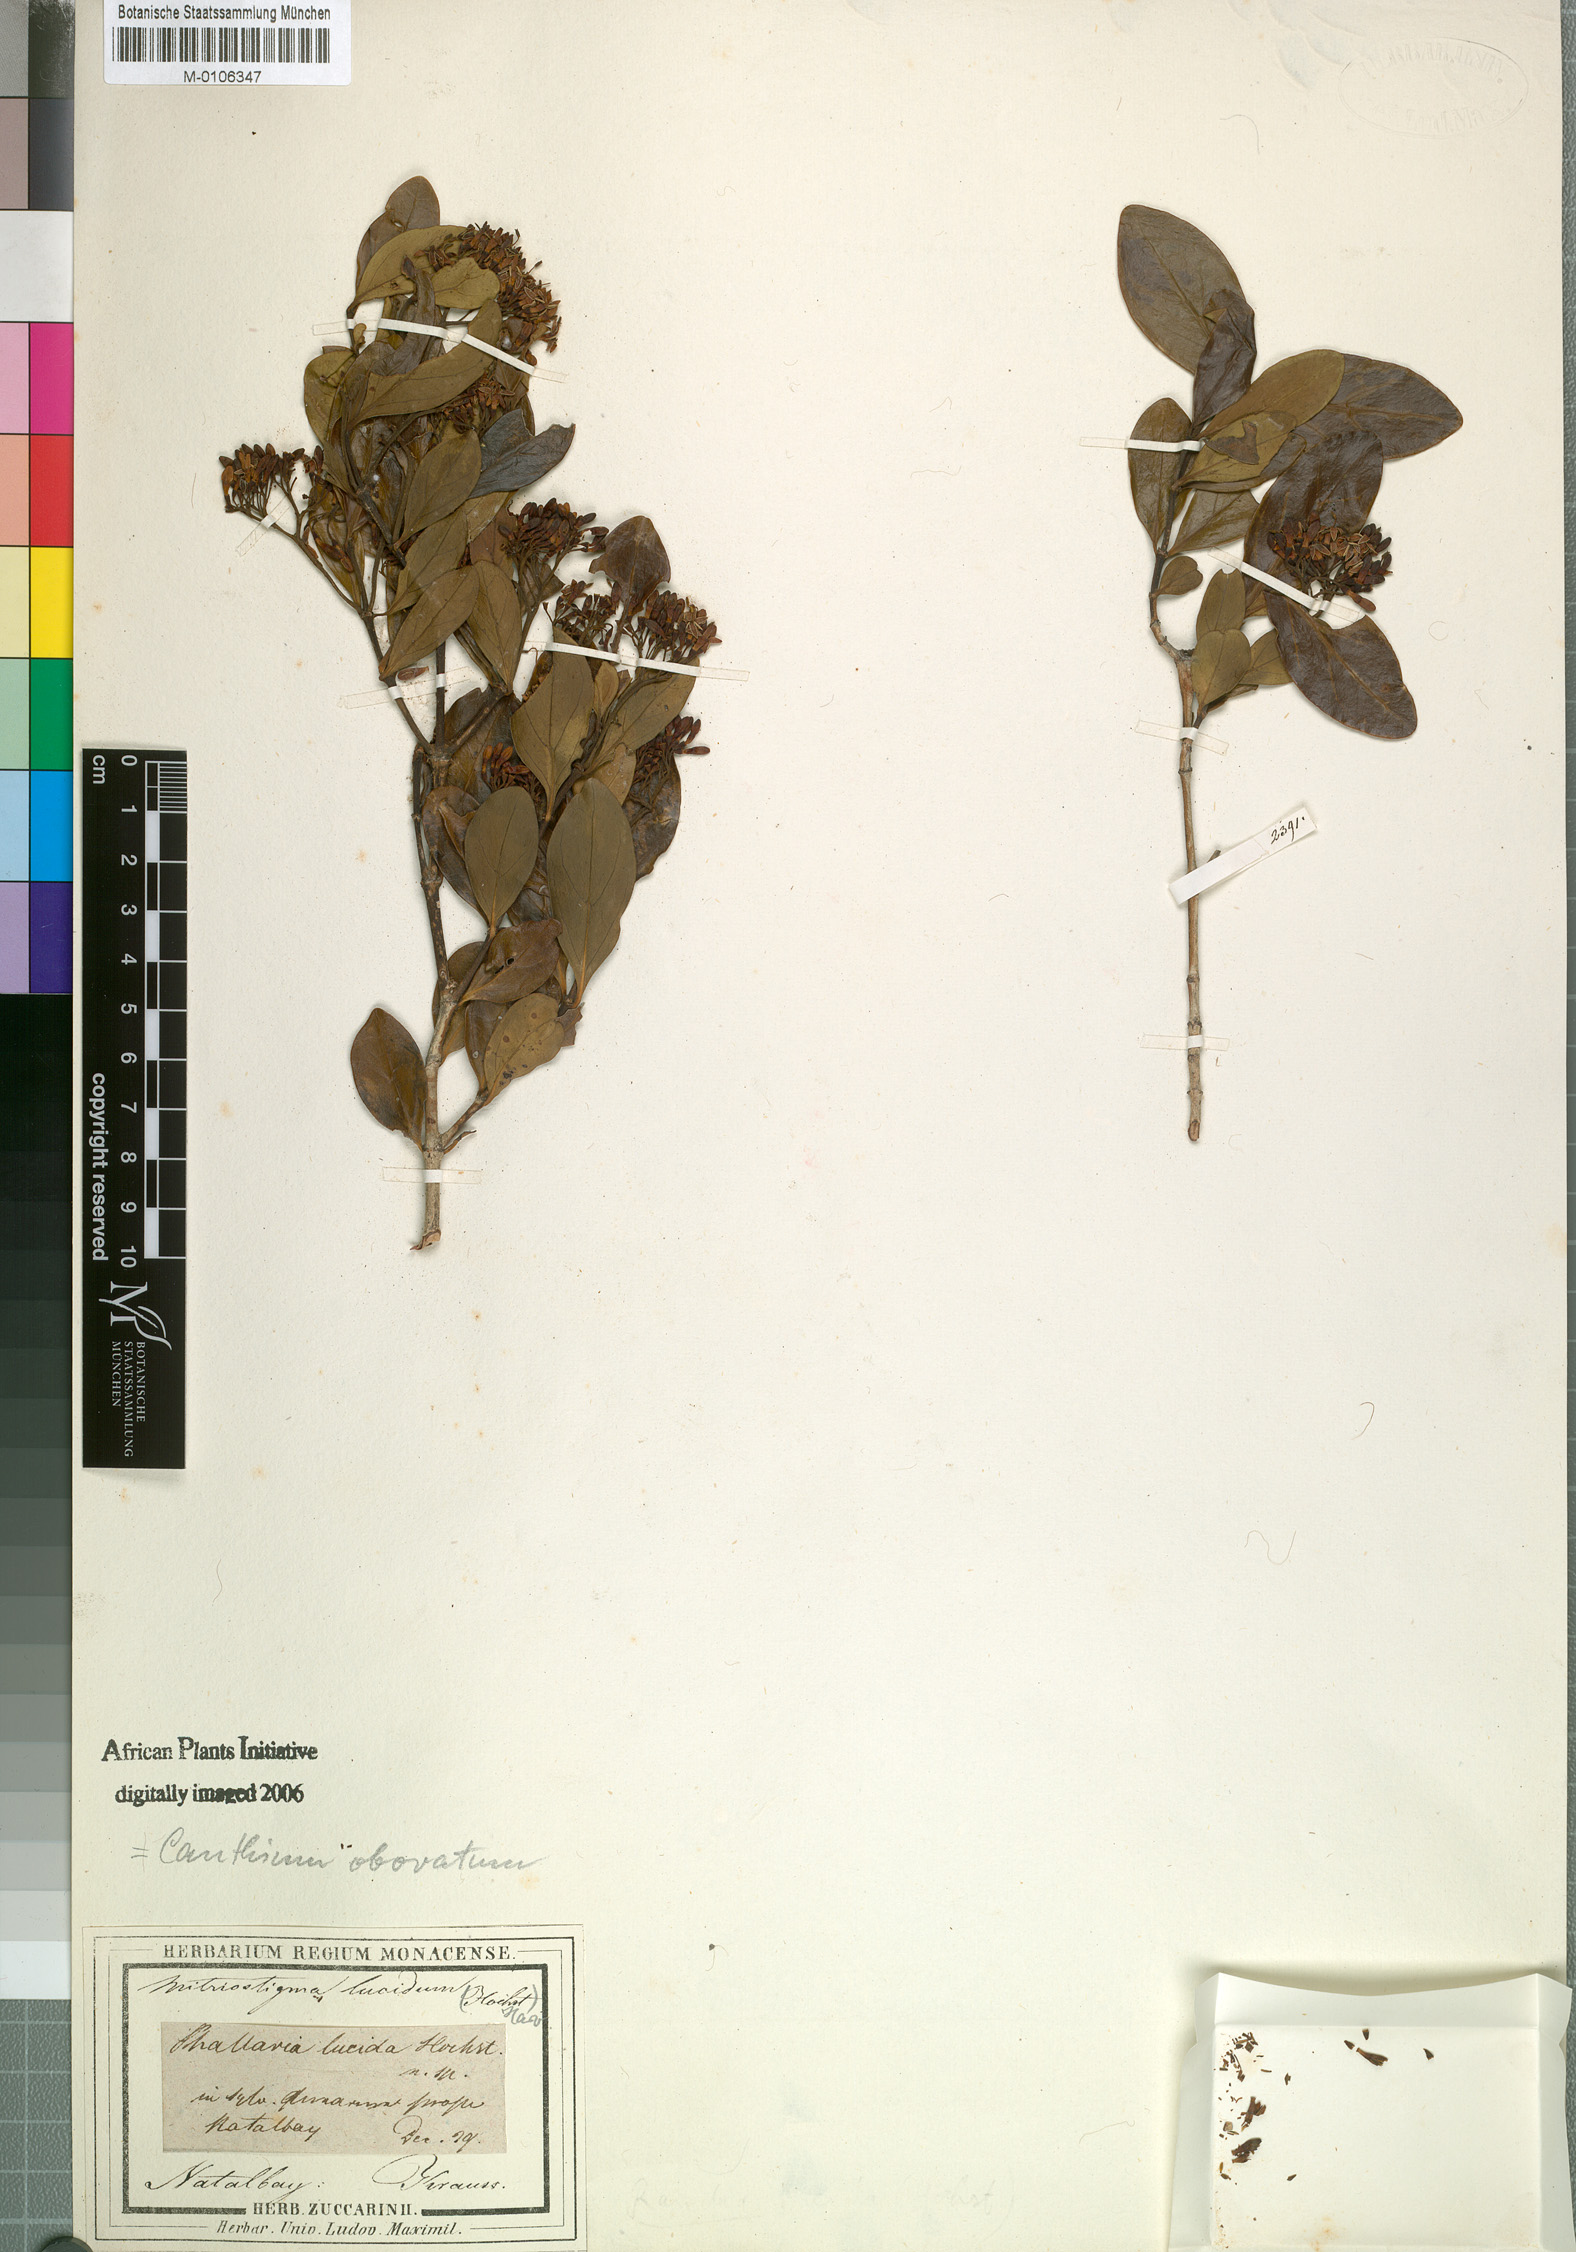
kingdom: Plantae
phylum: Tracheophyta
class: Magnoliopsida
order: Gentianales
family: Rubiaceae
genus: Psydrax
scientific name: Psydrax obovatus
